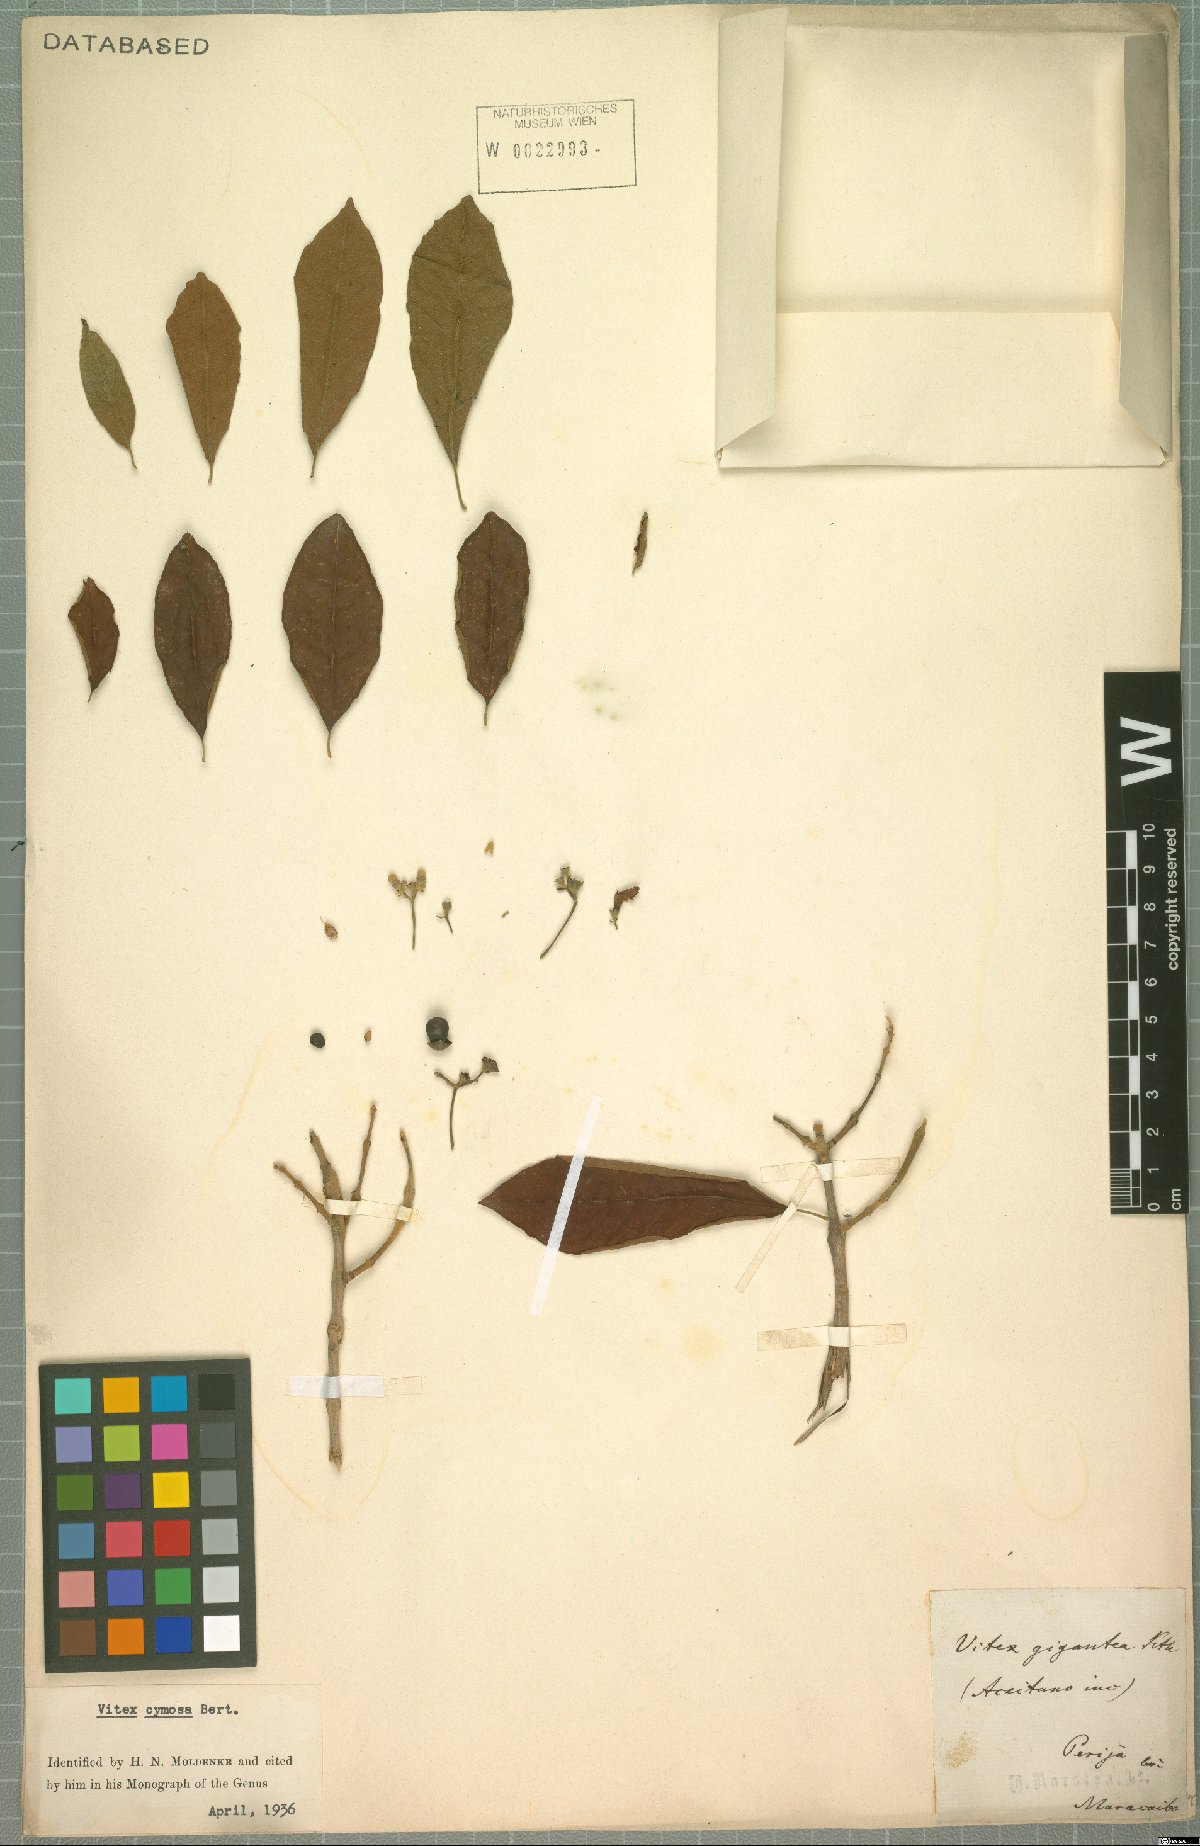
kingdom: Plantae
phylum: Tracheophyta
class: Magnoliopsida
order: Lamiales
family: Lamiaceae
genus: Vitex
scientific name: Vitex cymosa
